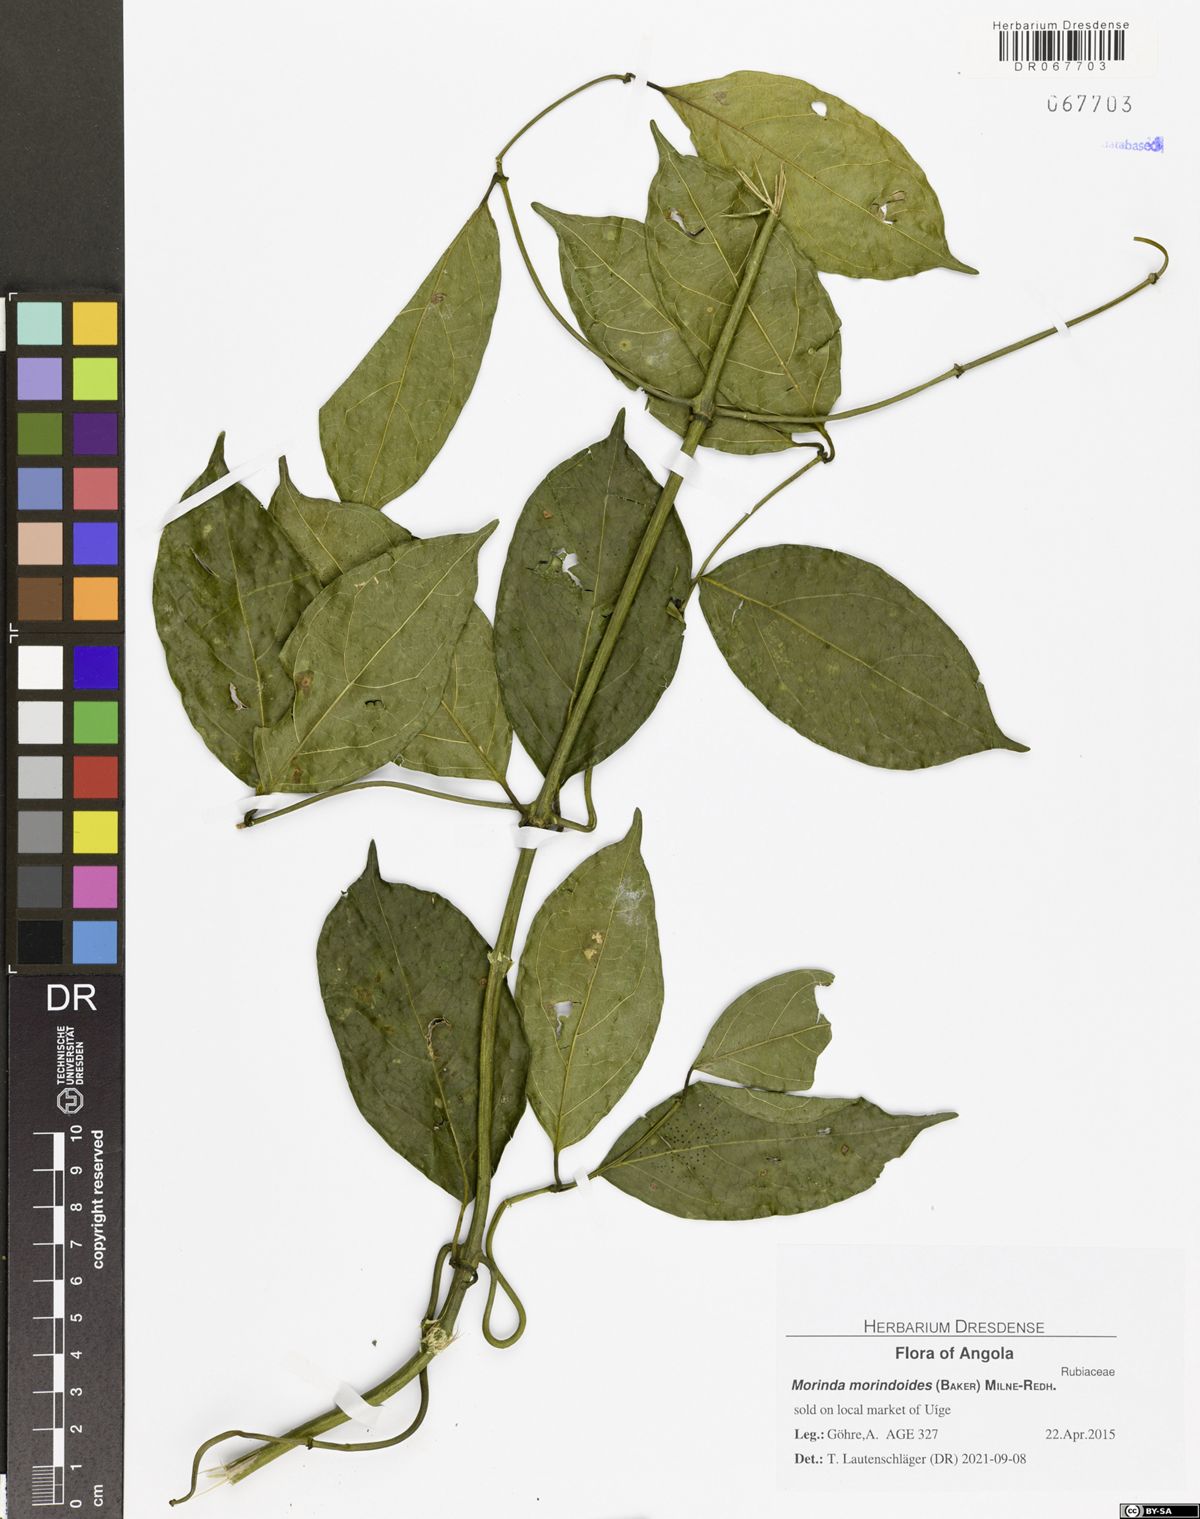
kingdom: Plantae
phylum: Tracheophyta
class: Magnoliopsida
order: Gentianales
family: Rubiaceae
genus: Morinda
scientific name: Morinda morindoides
